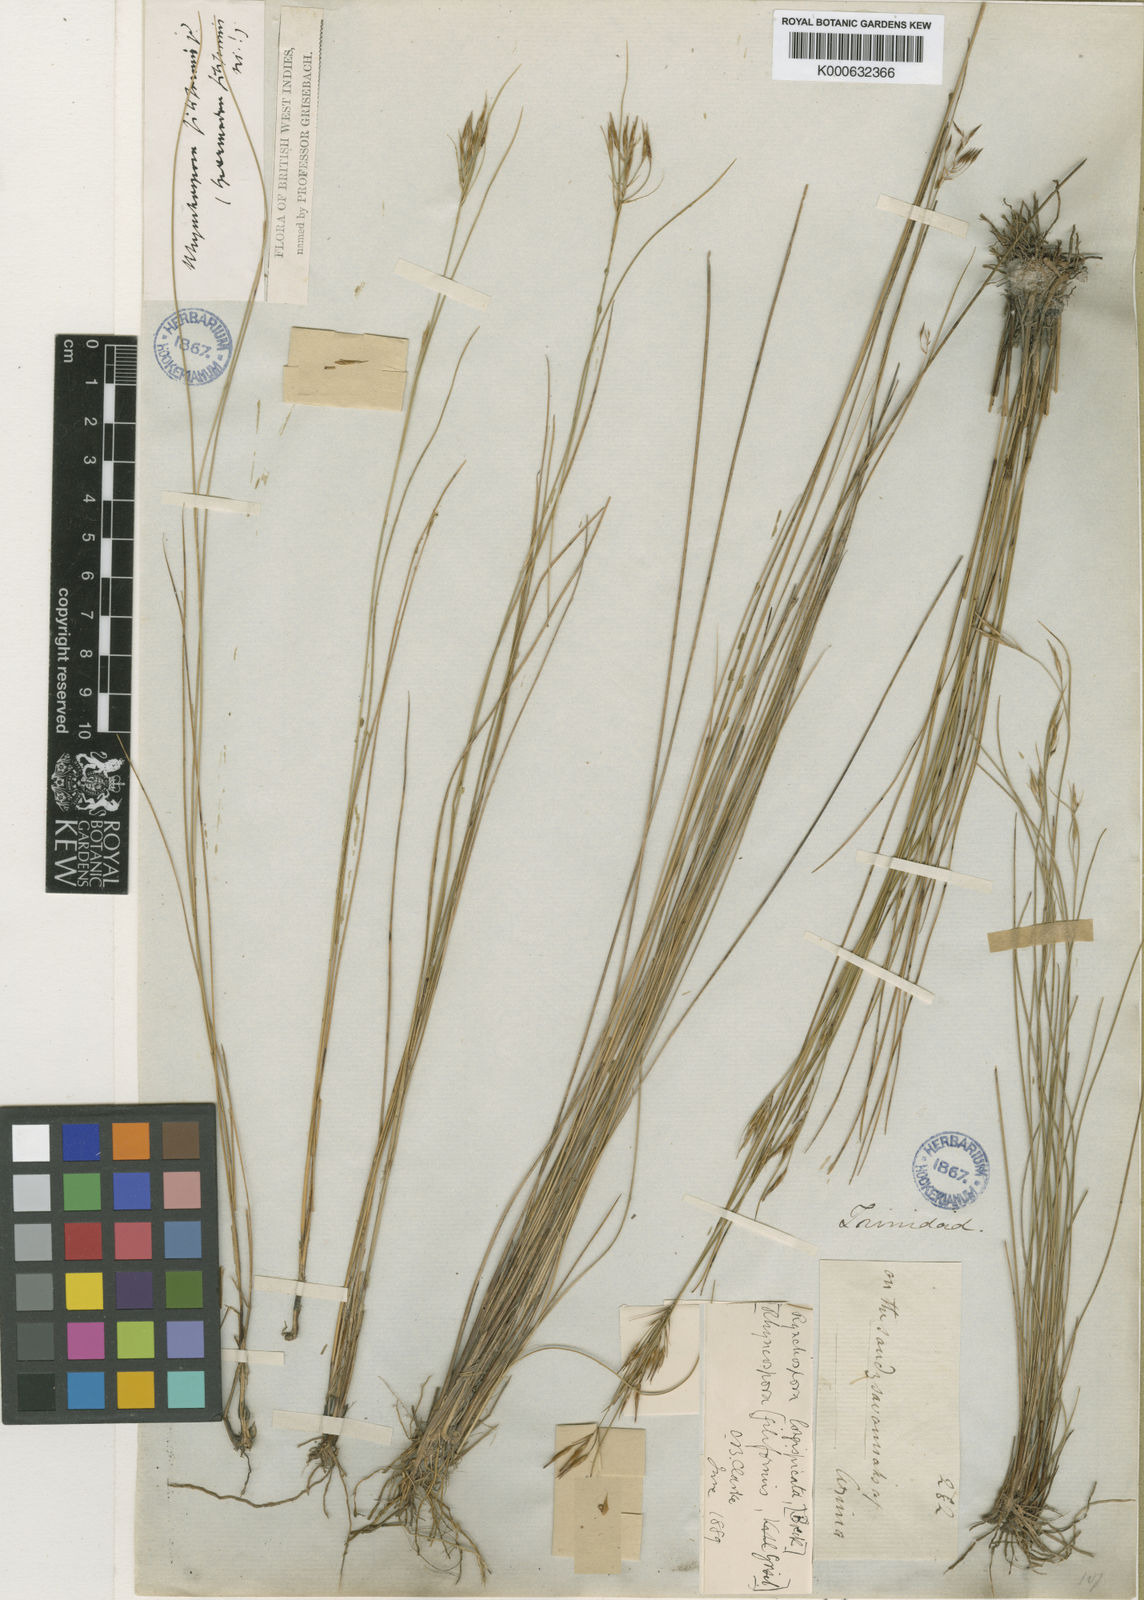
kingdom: Plantae
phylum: Tracheophyta
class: Liliopsida
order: Poales
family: Cyperaceae
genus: Rhynchospora
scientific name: Rhynchospora
